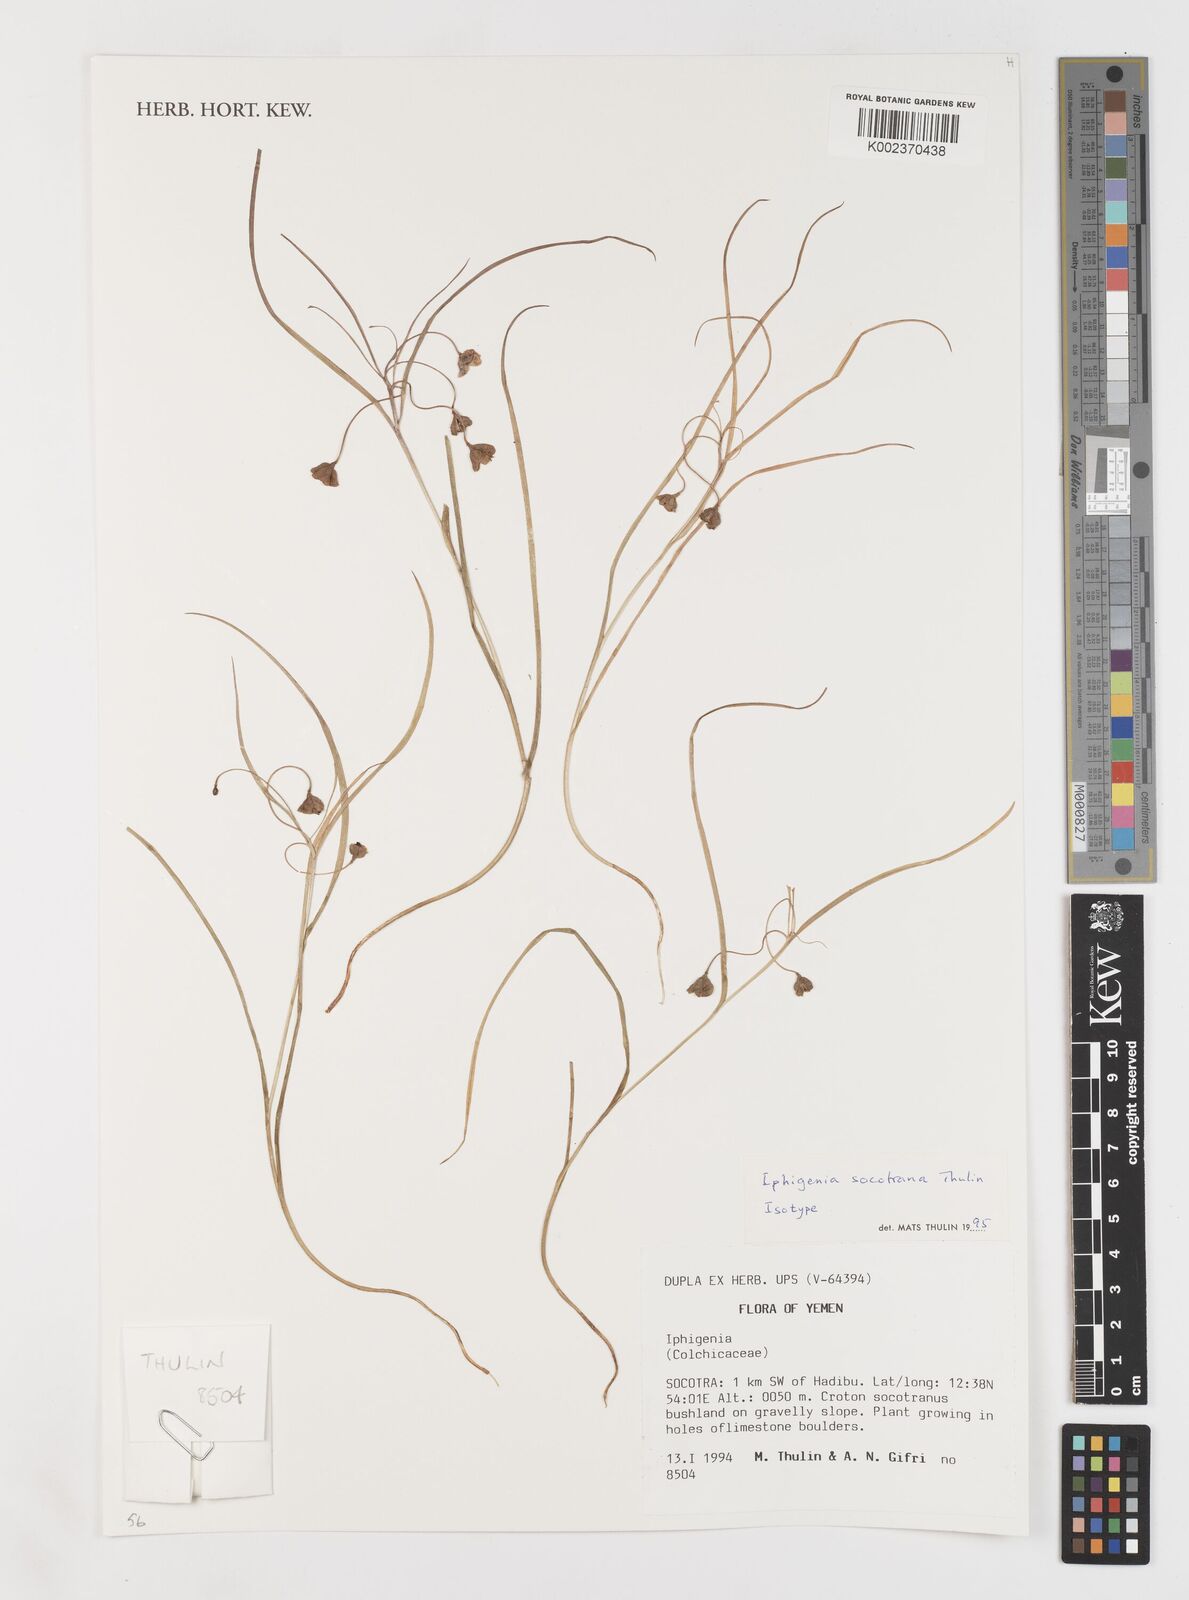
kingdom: Plantae
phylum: Tracheophyta
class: Liliopsida
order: Liliales
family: Colchicaceae
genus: Iphigenia
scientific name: Iphigenia socotrana
